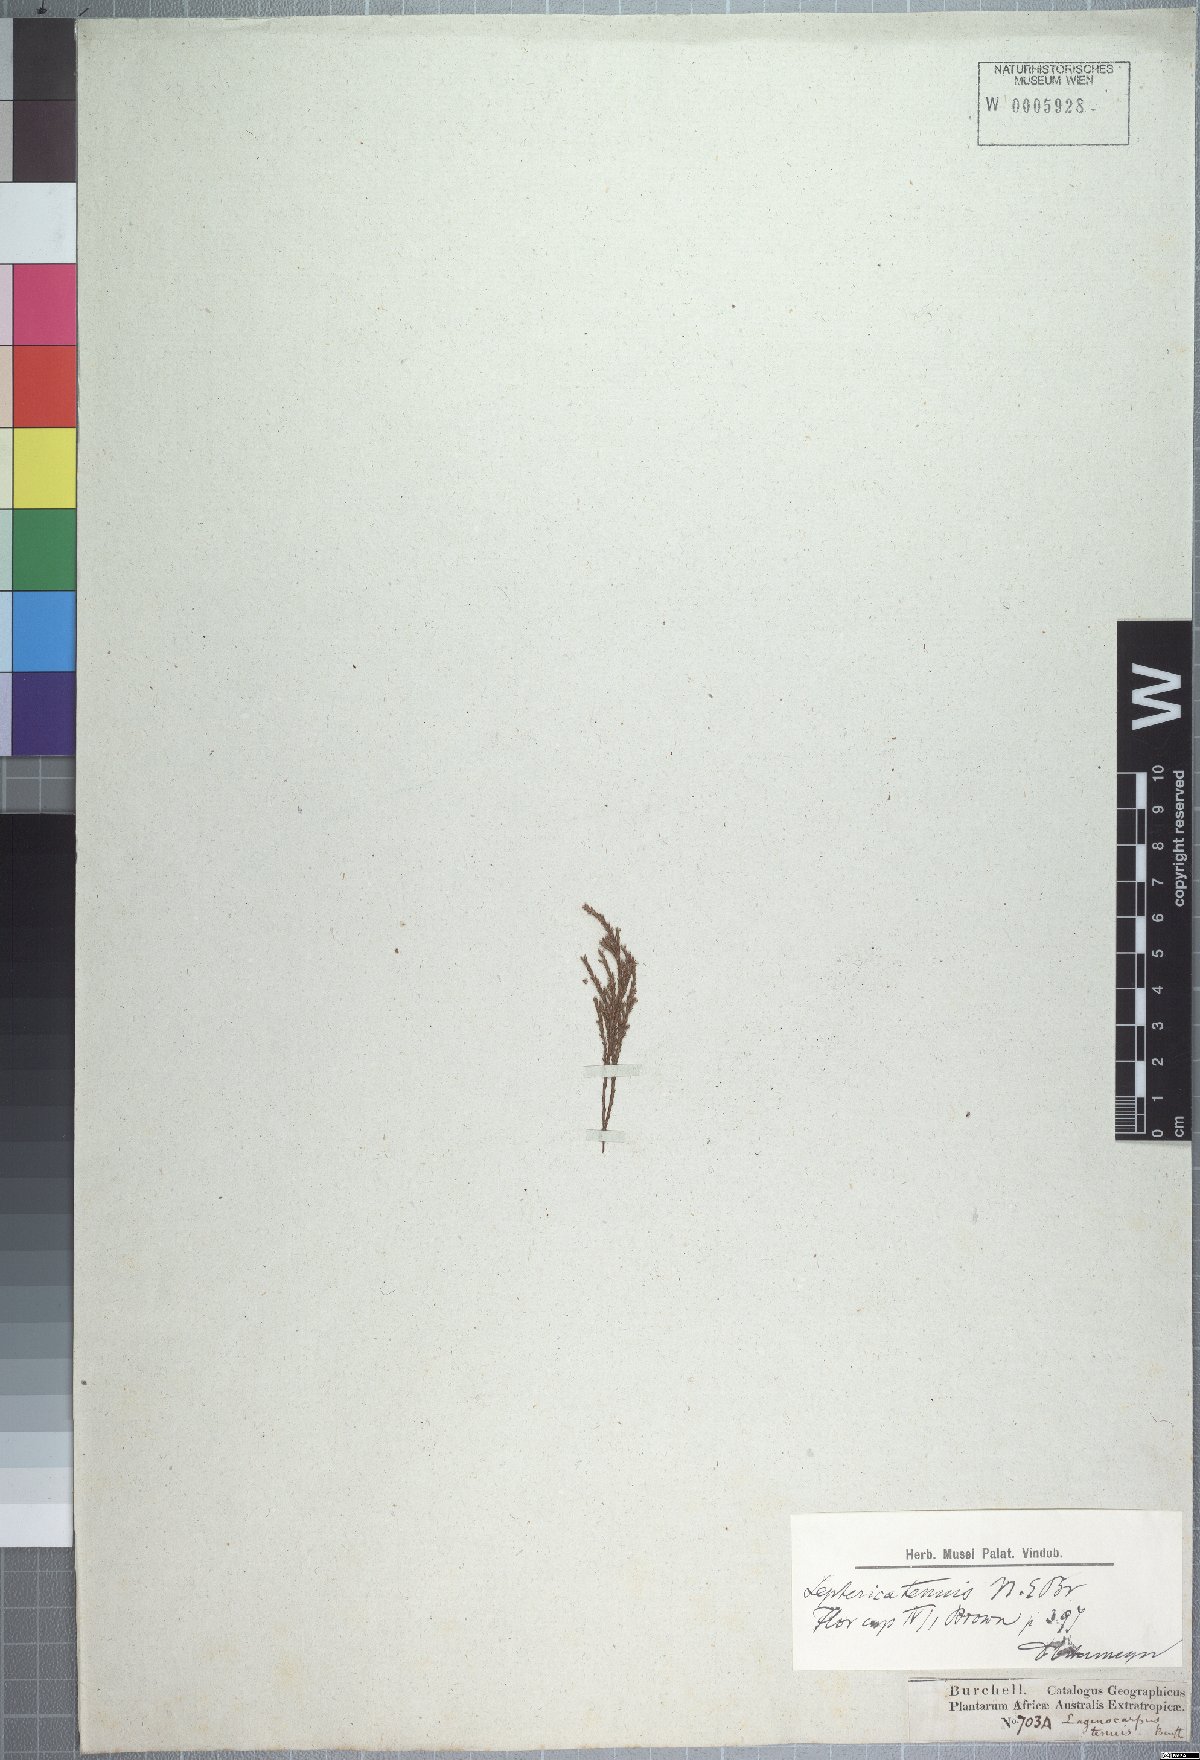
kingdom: Plantae
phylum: Tracheophyta
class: Magnoliopsida
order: Ericales
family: Ericaceae
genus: Erica
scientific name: Erica miniscula
